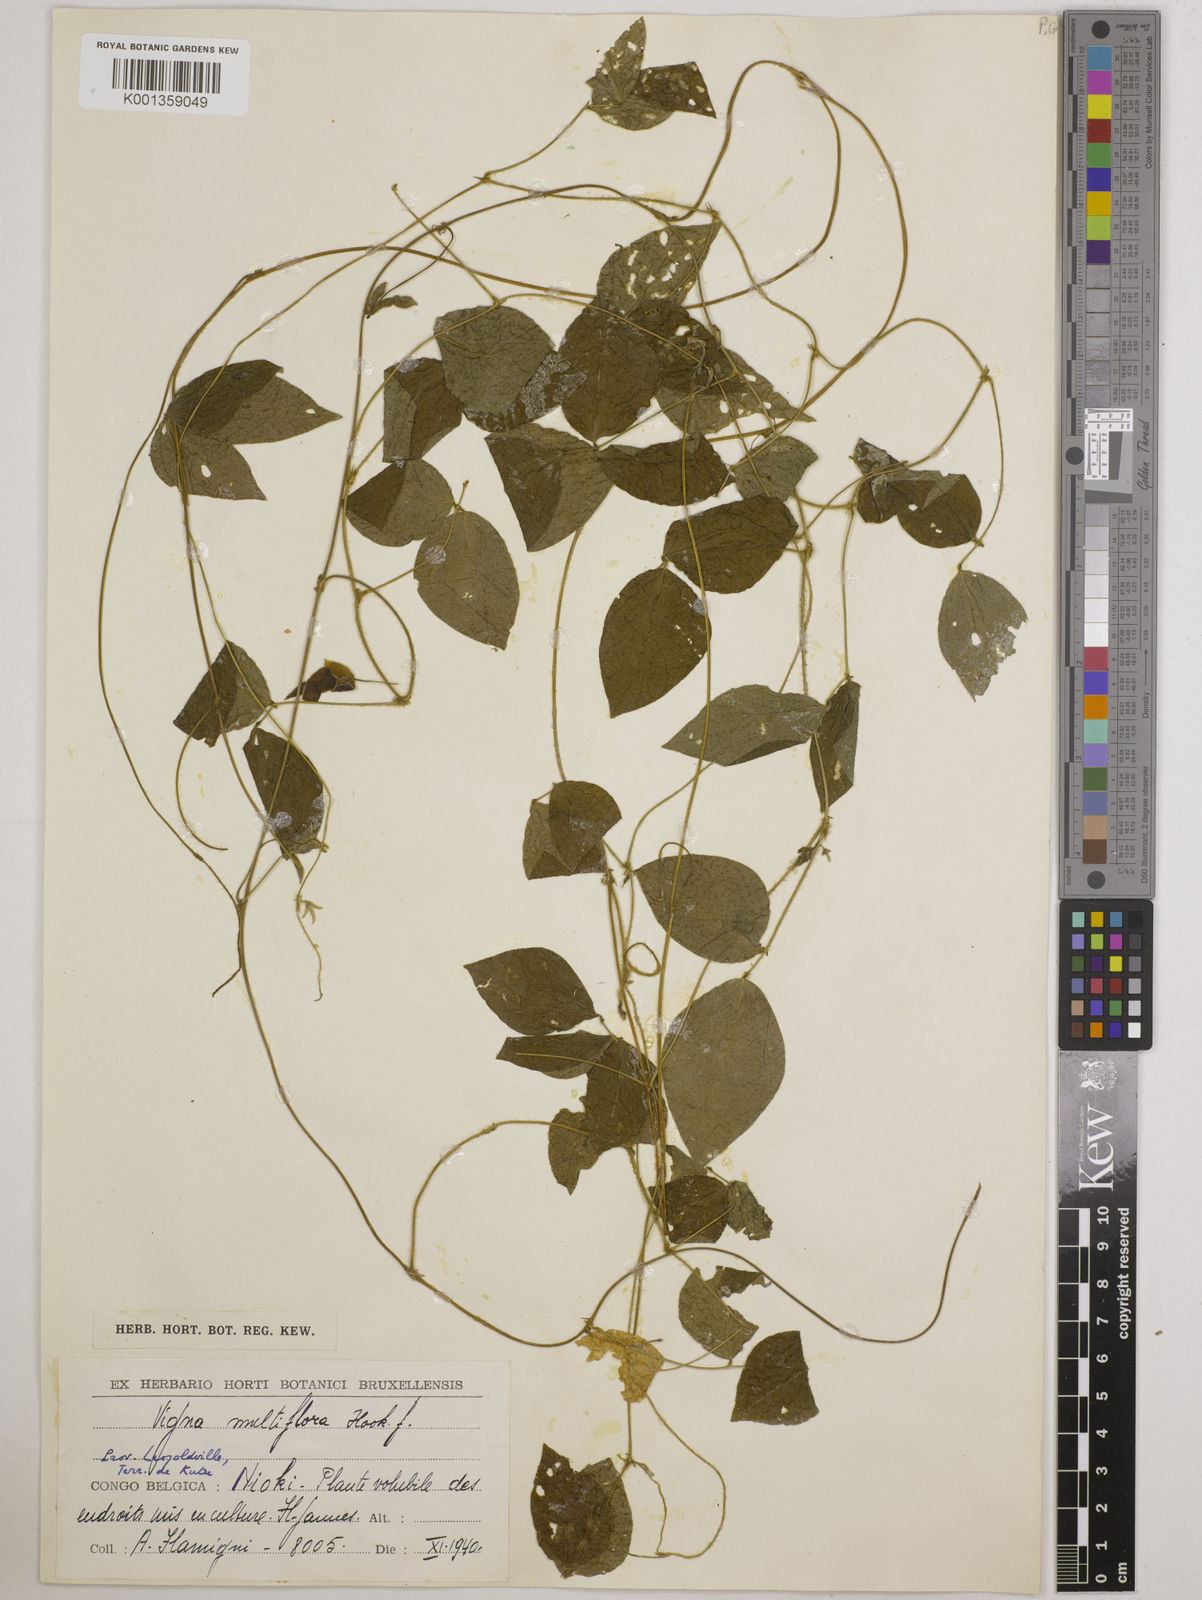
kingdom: Plantae
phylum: Tracheophyta
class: Magnoliopsida
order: Fabales
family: Fabaceae
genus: Vigna
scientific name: Vigna gracilis
